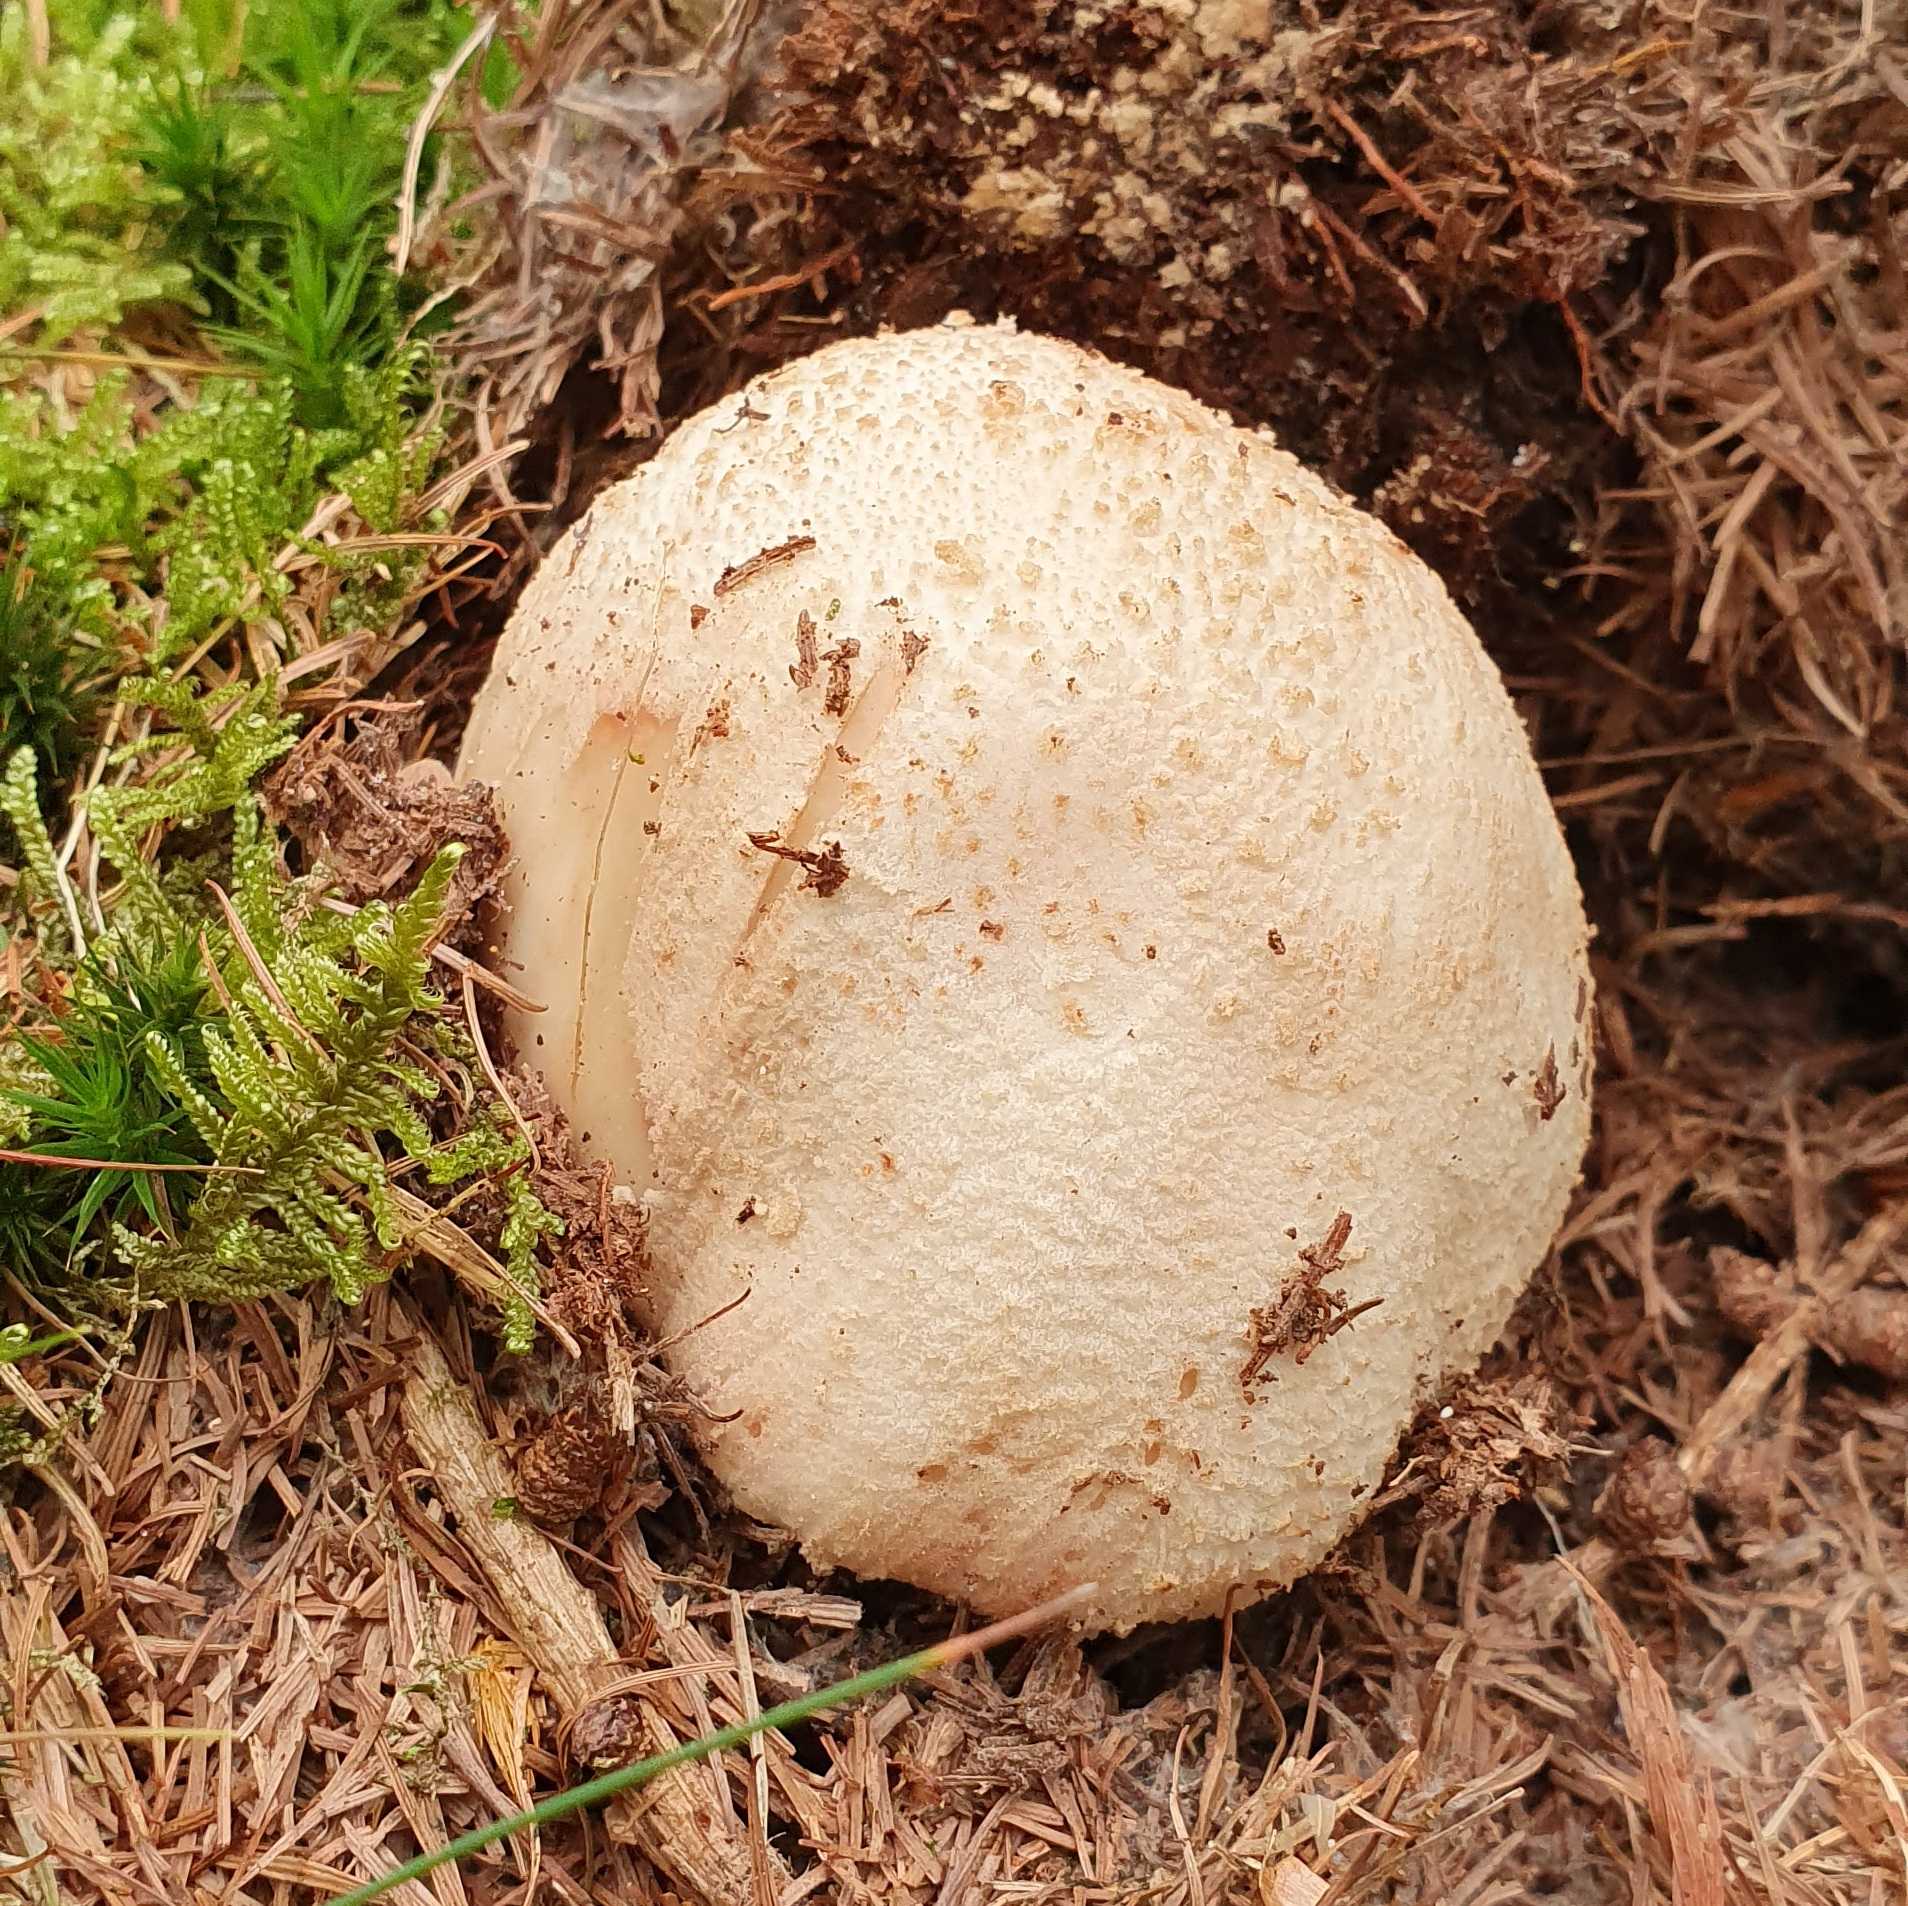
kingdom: Fungi
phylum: Basidiomycota
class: Agaricomycetes
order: Agaricales
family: Amanitaceae
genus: Amanita
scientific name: Amanita
